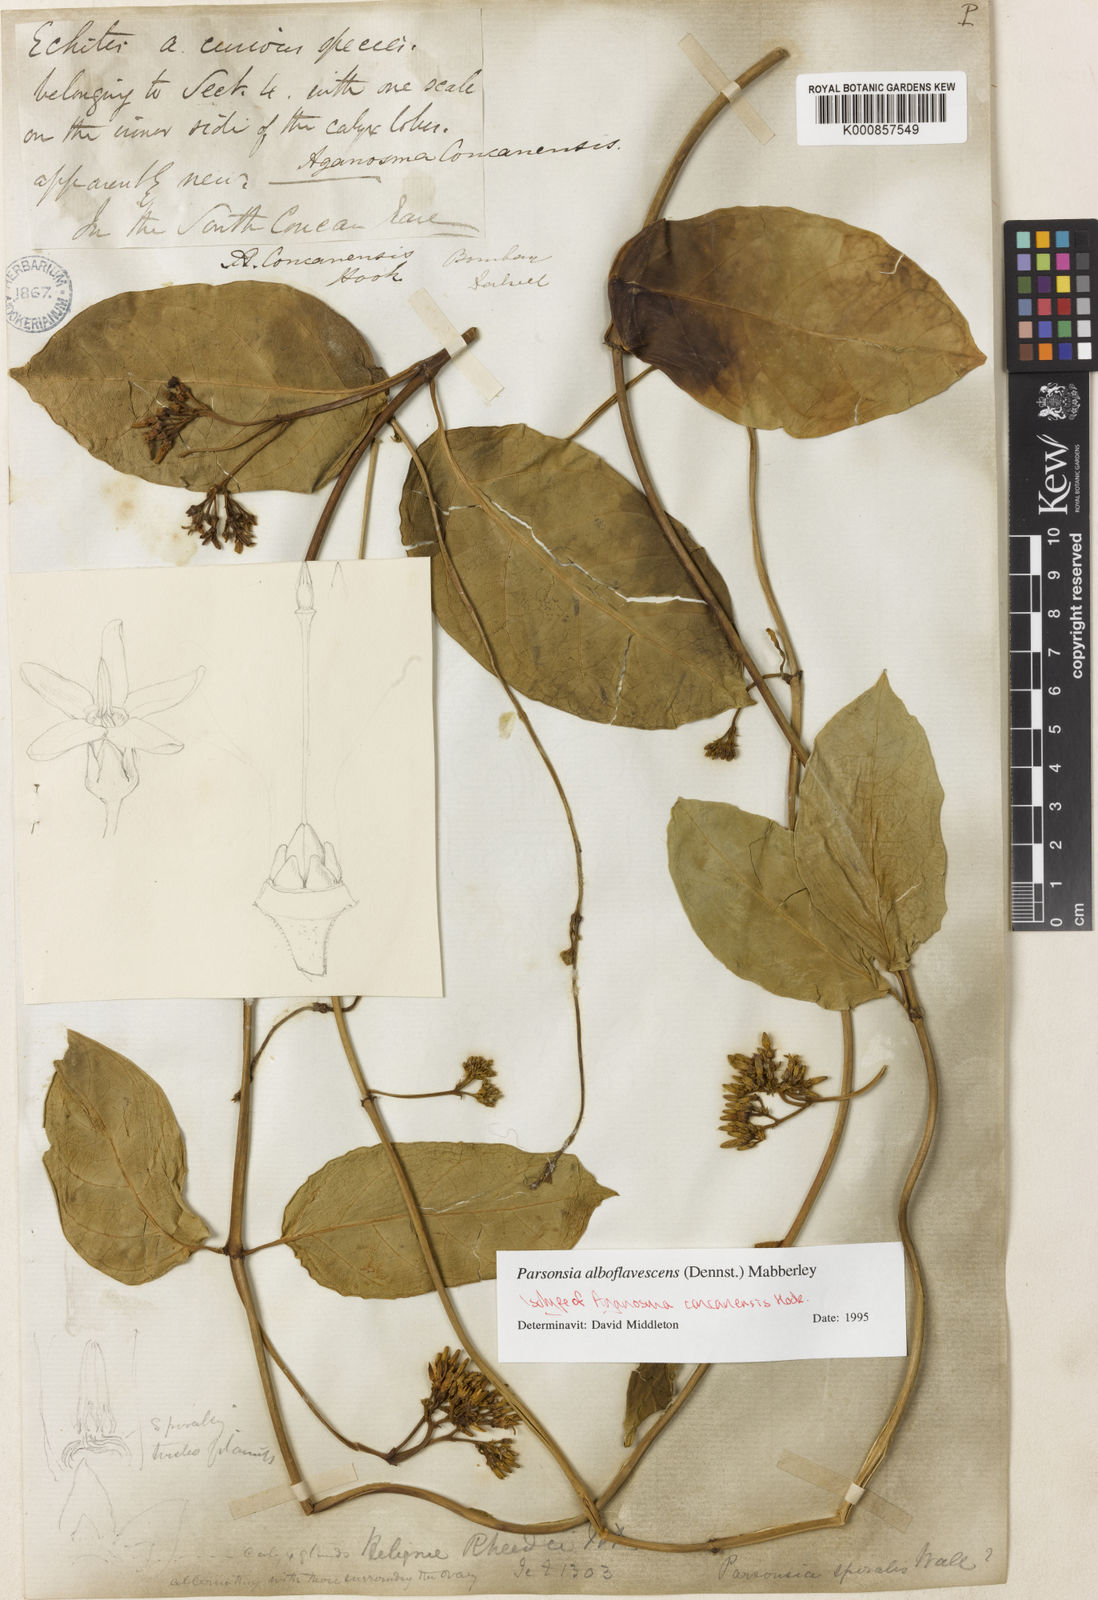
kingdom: Plantae
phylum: Tracheophyta
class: Magnoliopsida
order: Gentianales
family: Apocynaceae
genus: Parsonsia
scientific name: Parsonsia alboflavescens
